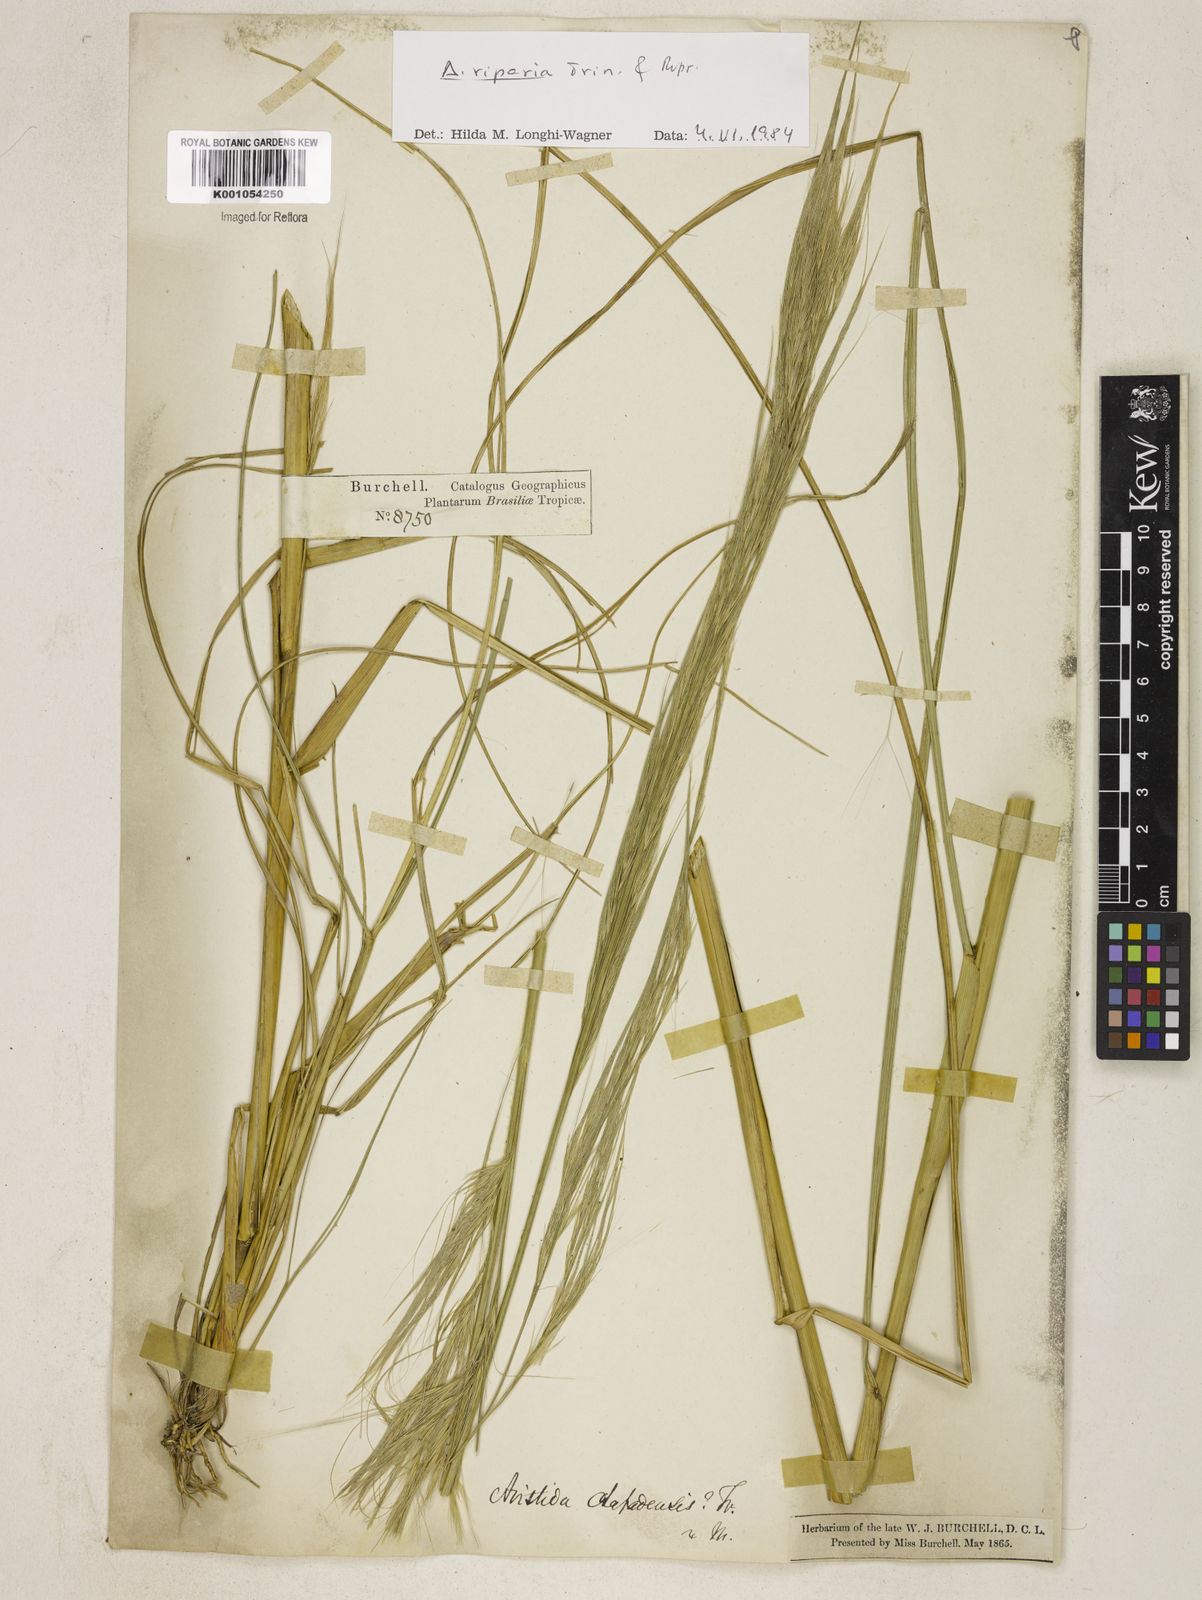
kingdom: Plantae
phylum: Tracheophyta
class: Liliopsida
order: Poales
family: Poaceae
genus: Aristida
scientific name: Aristida riparia
